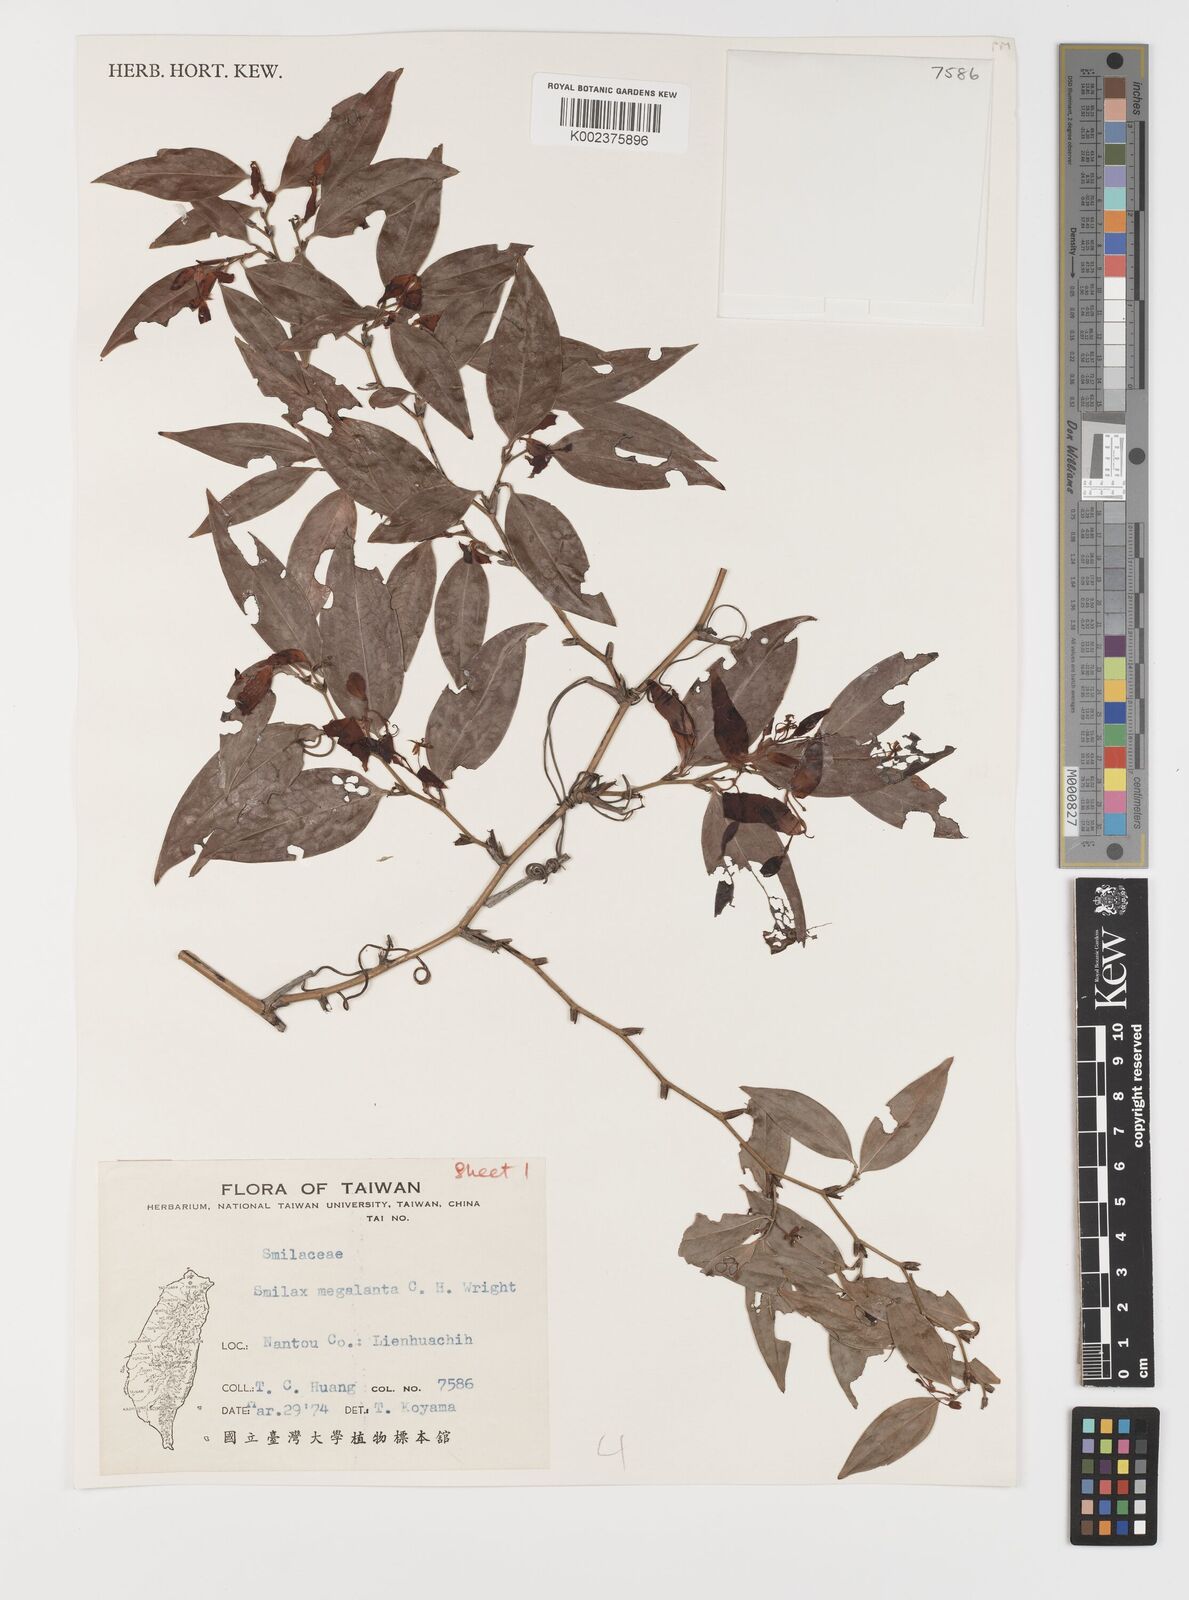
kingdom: Plantae
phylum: Tracheophyta
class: Liliopsida
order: Liliales
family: Smilacaceae
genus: Smilax
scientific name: Smilax megalantha
